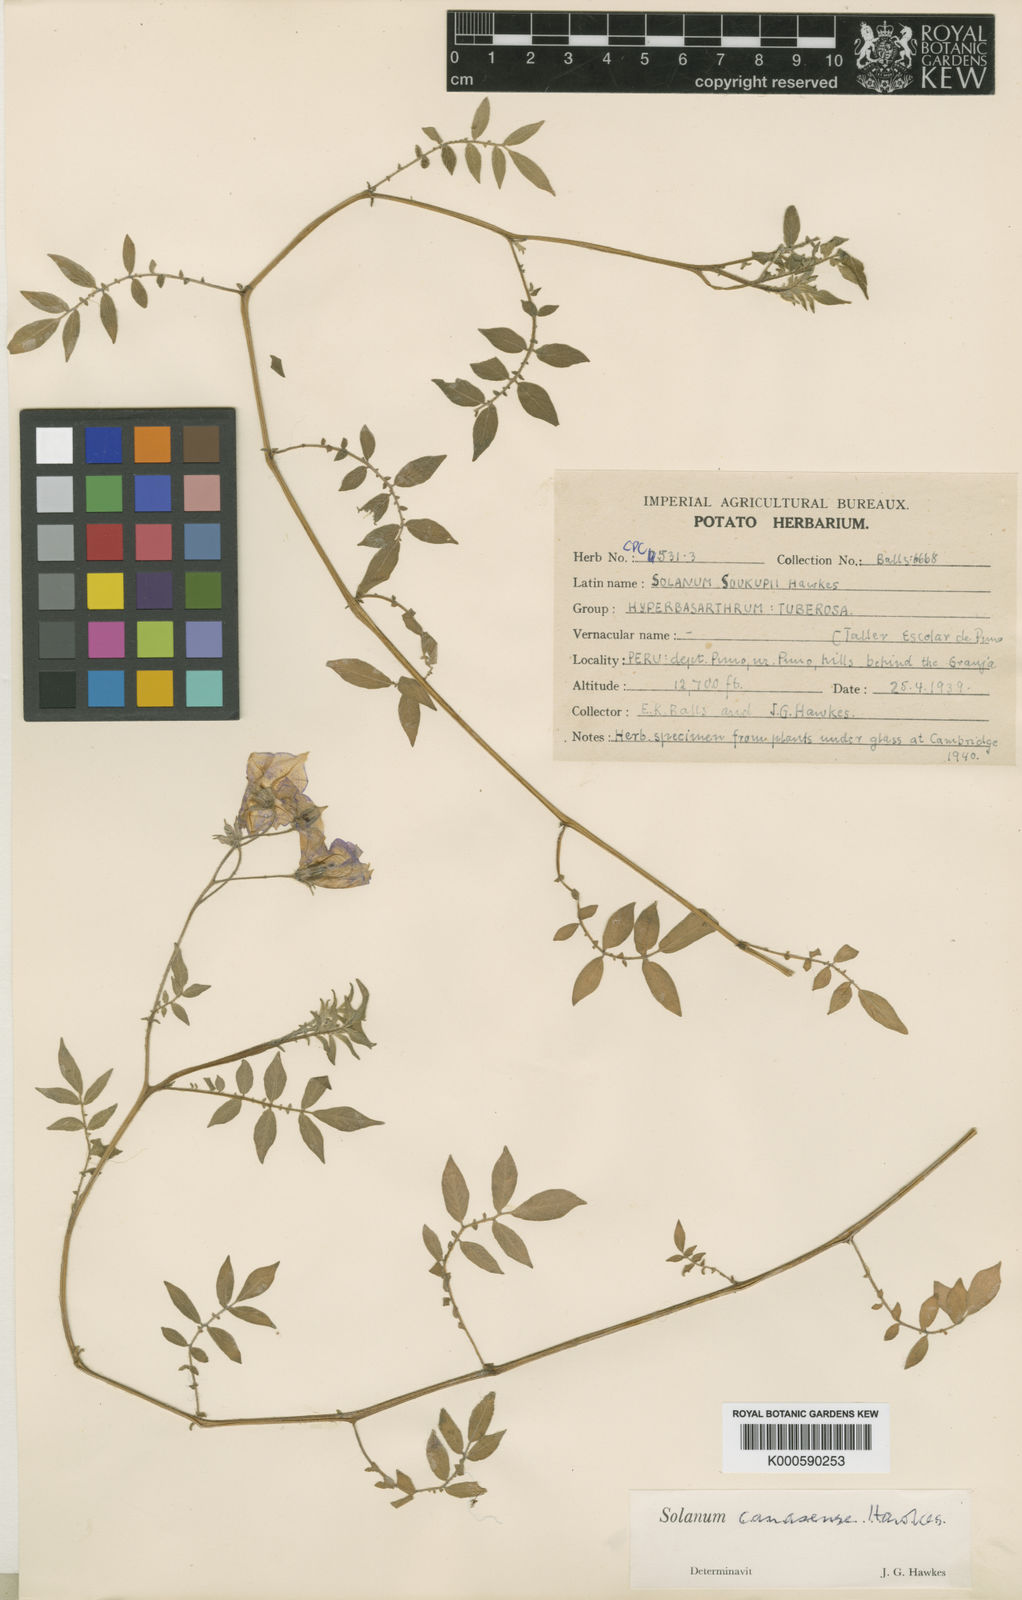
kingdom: Plantae
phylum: Tracheophyta
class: Magnoliopsida
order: Solanales
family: Solanaceae
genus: Solanum
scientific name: Solanum candolleanum
